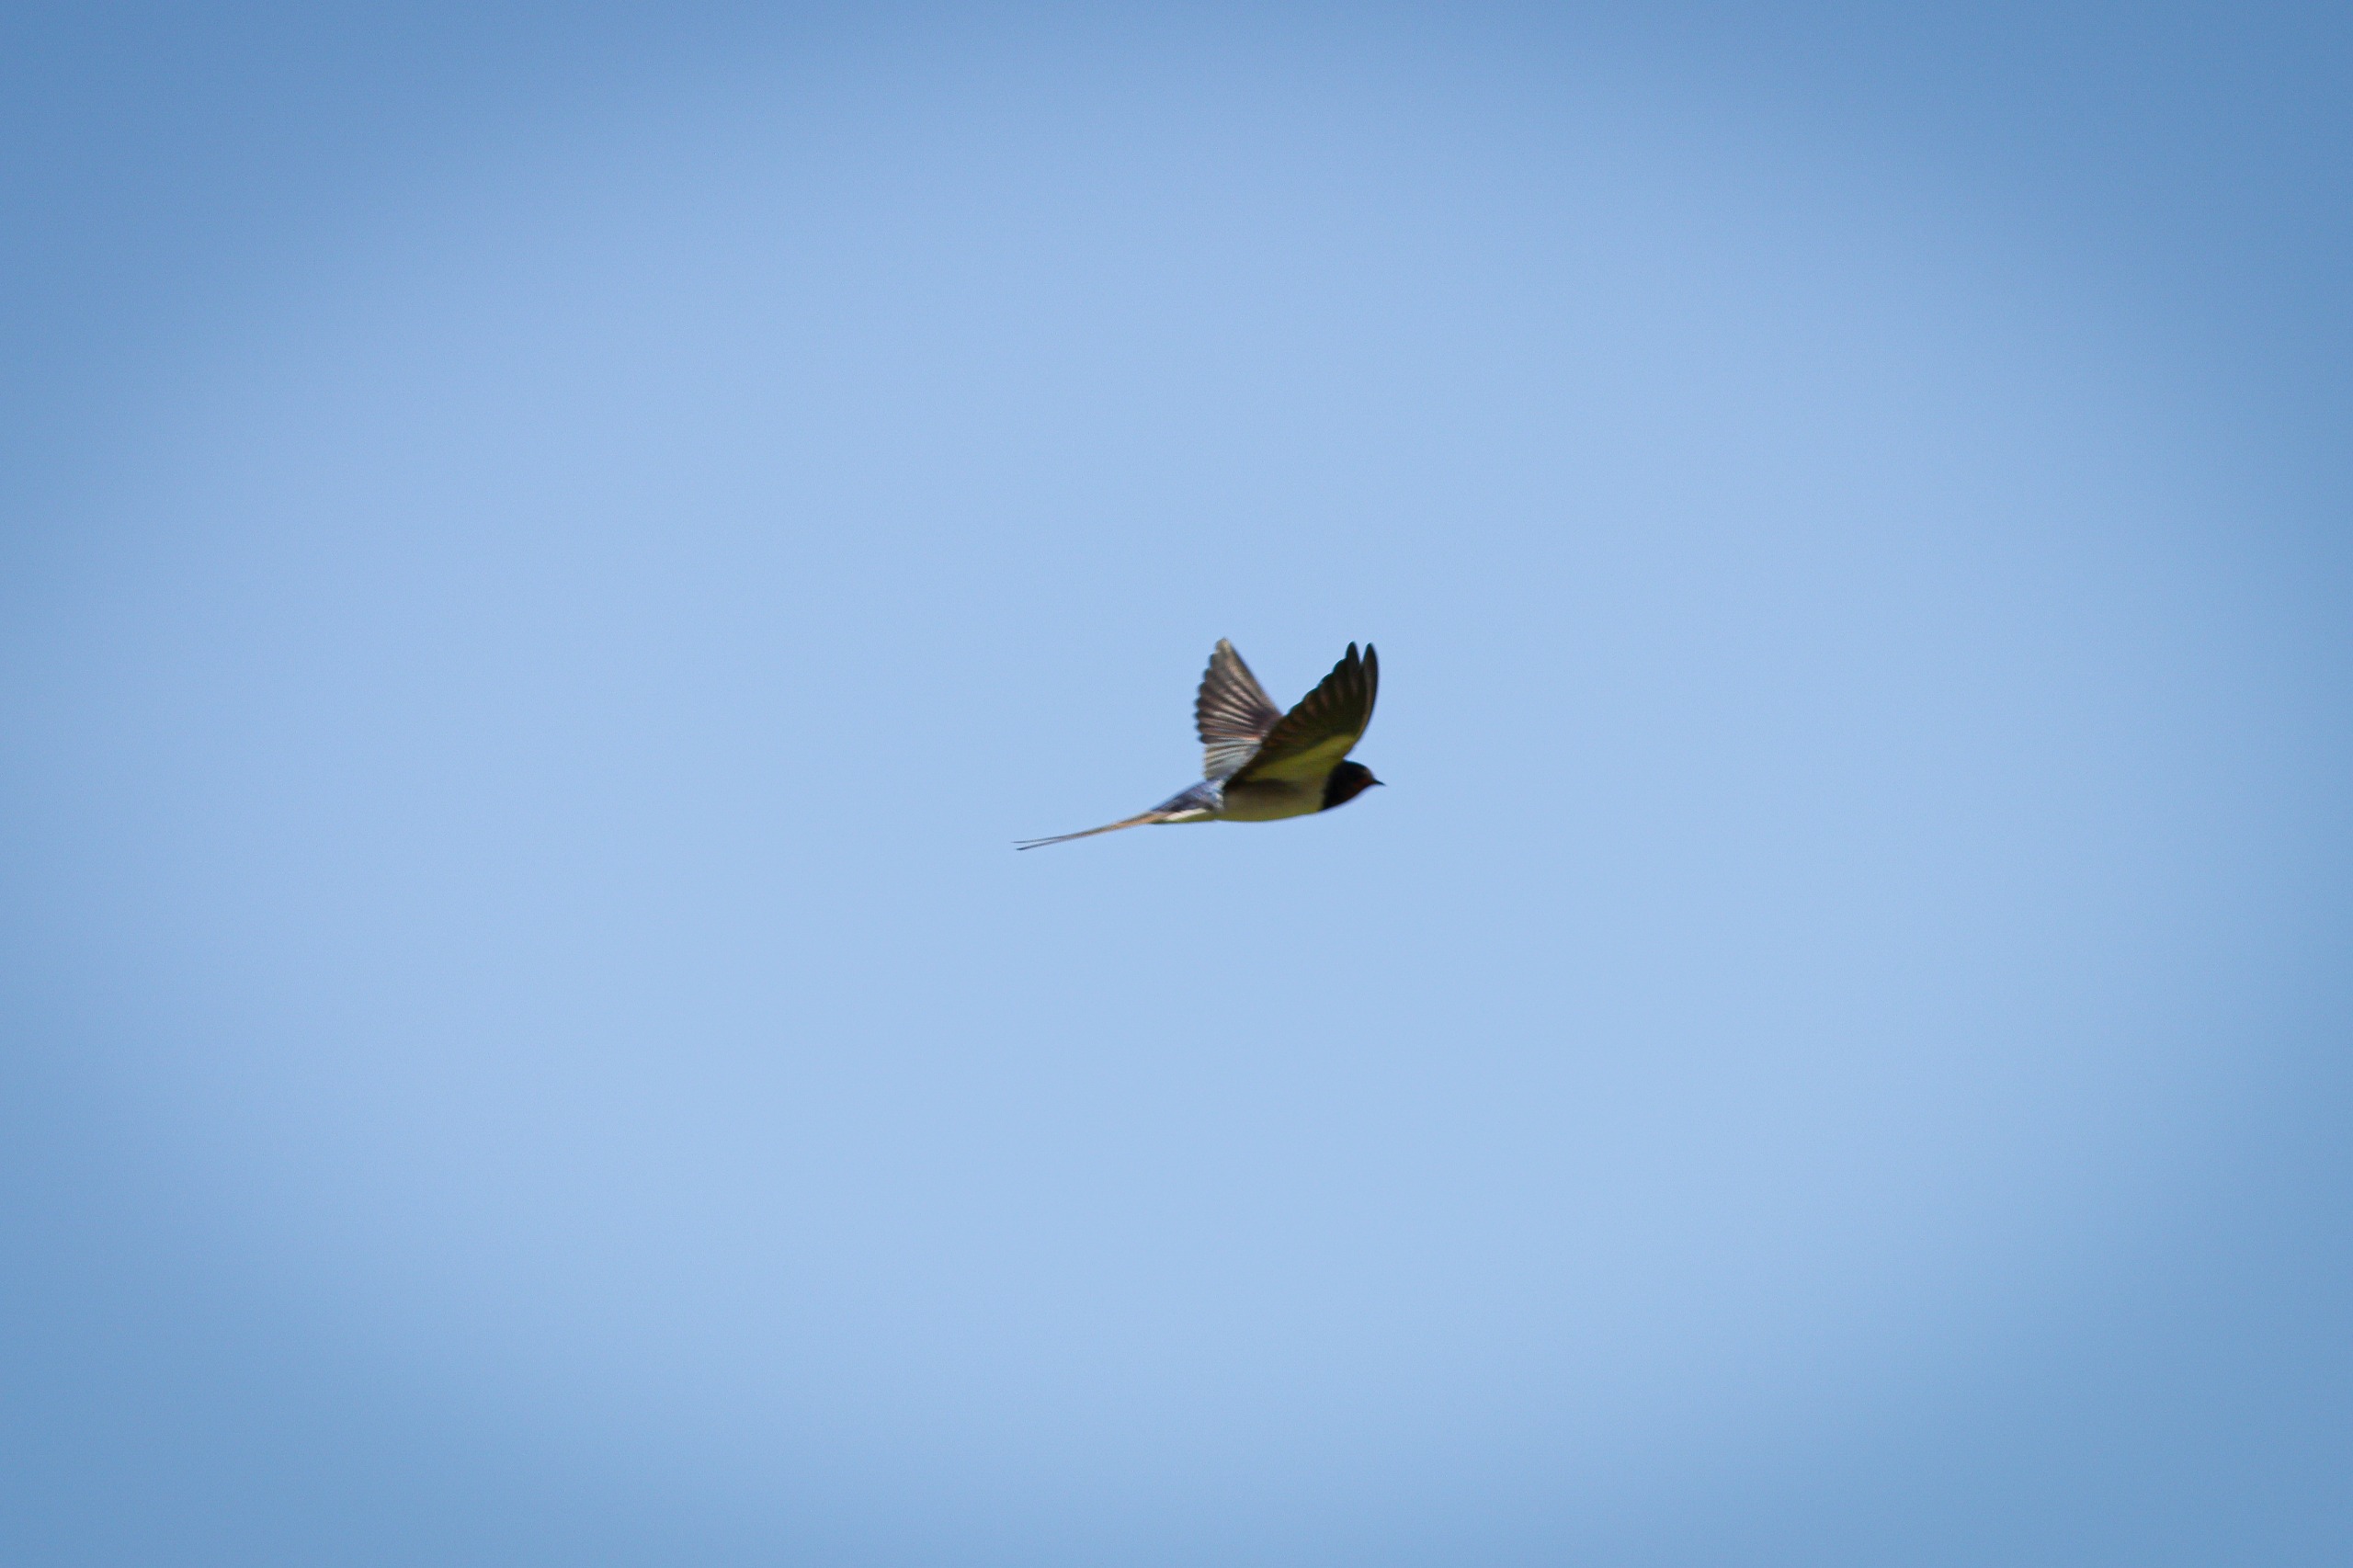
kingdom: Animalia
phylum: Chordata
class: Aves
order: Passeriformes
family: Hirundinidae
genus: Hirundo
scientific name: Hirundo rustica
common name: Landsvale
